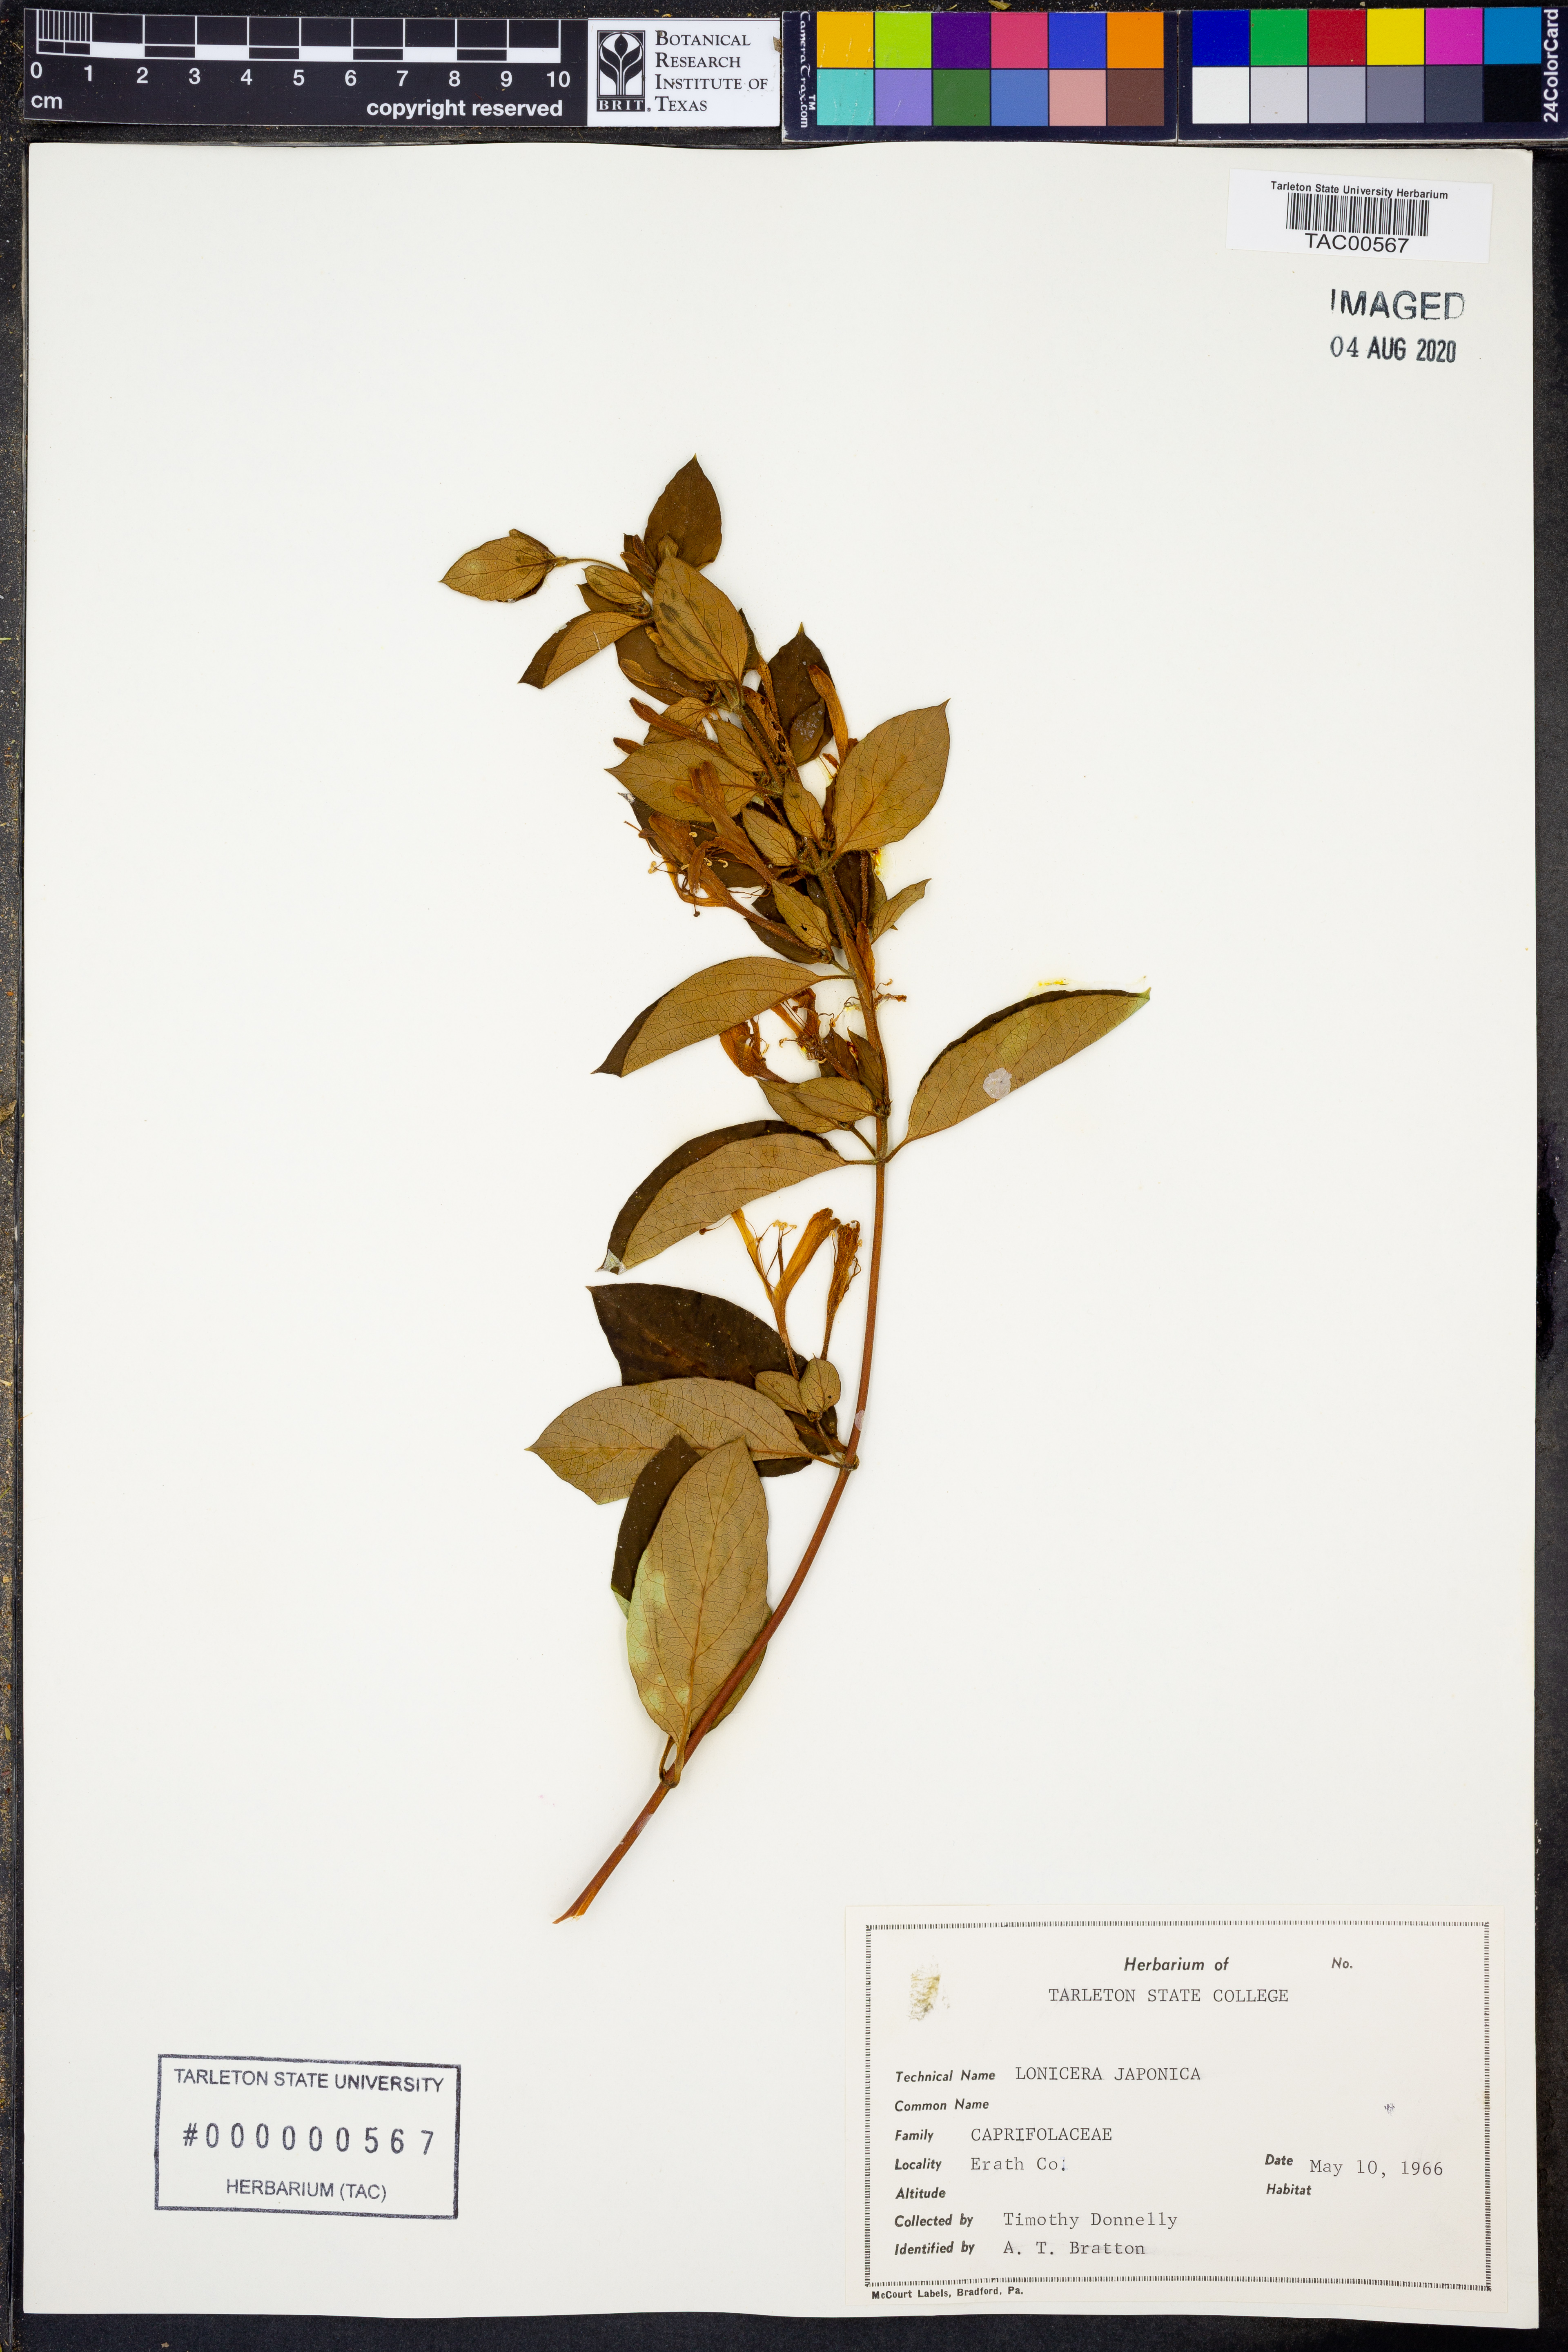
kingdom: Plantae
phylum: Tracheophyta
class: Magnoliopsida
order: Dipsacales
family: Caprifoliaceae
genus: Lonicera
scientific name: Lonicera japonica
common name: Japanese honeysuckle
